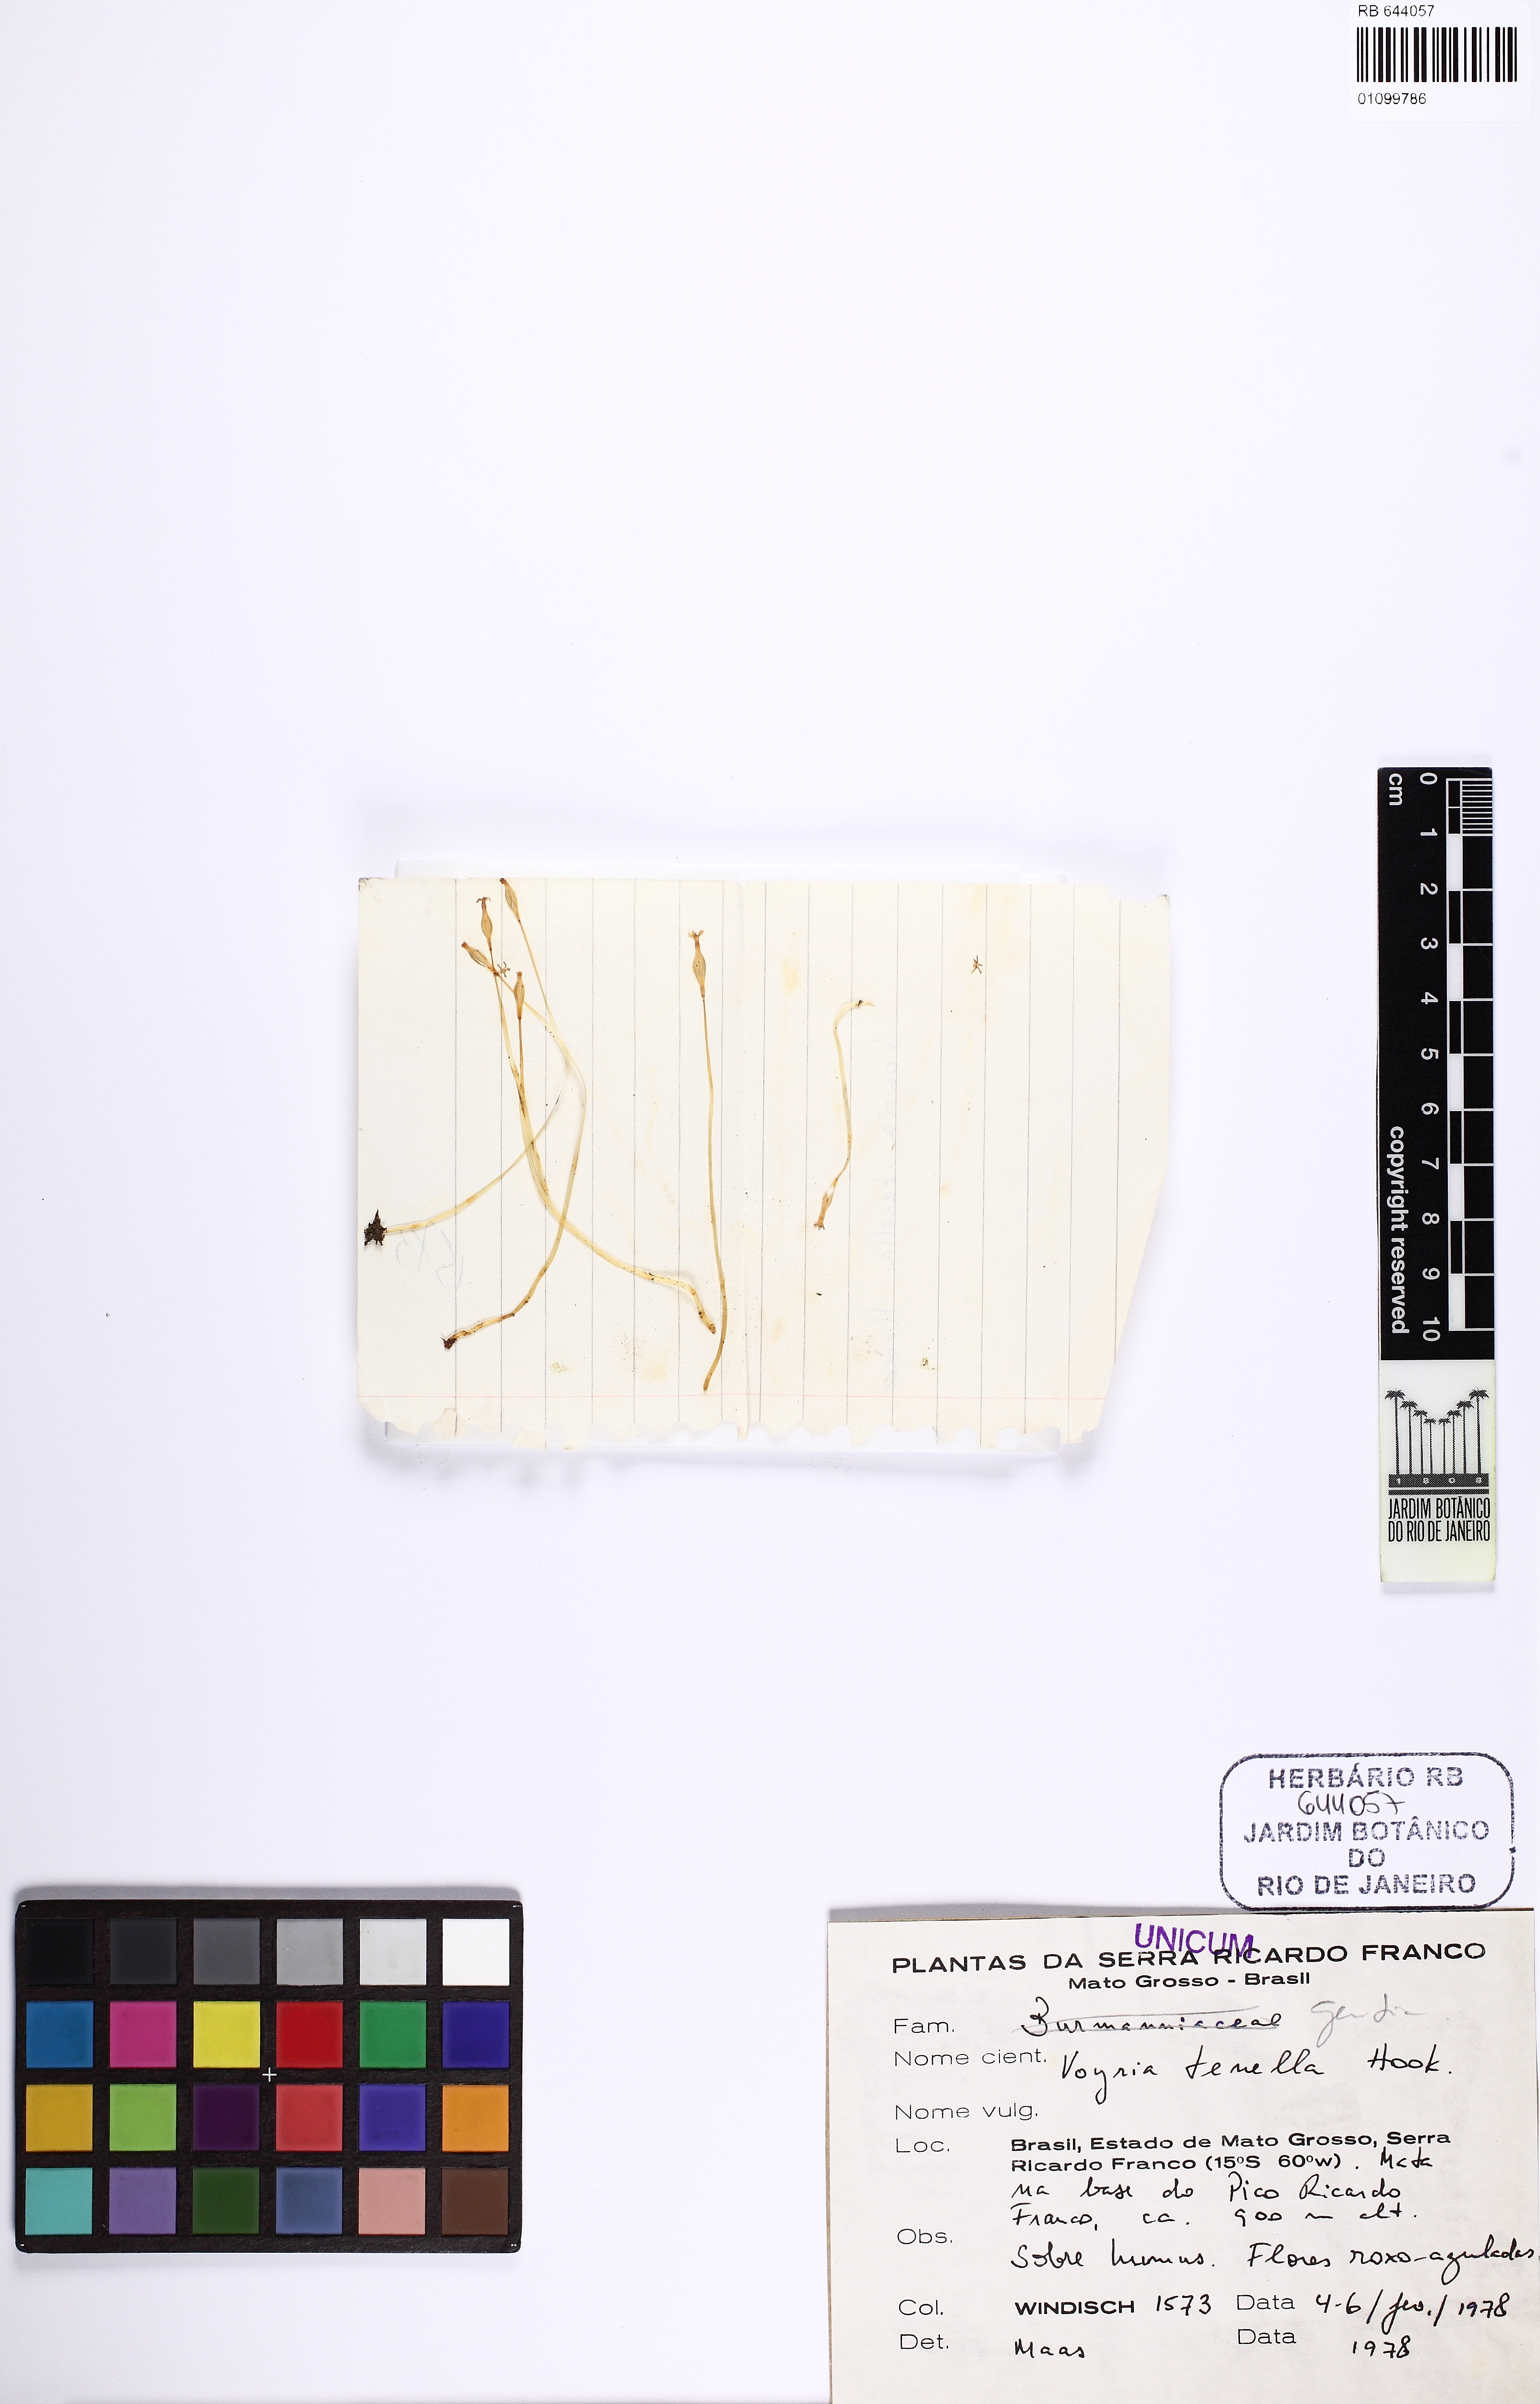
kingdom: Plantae
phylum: Tracheophyta
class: Magnoliopsida
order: Gentianales
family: Gentianaceae
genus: Voyria
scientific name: Voyria tenella
